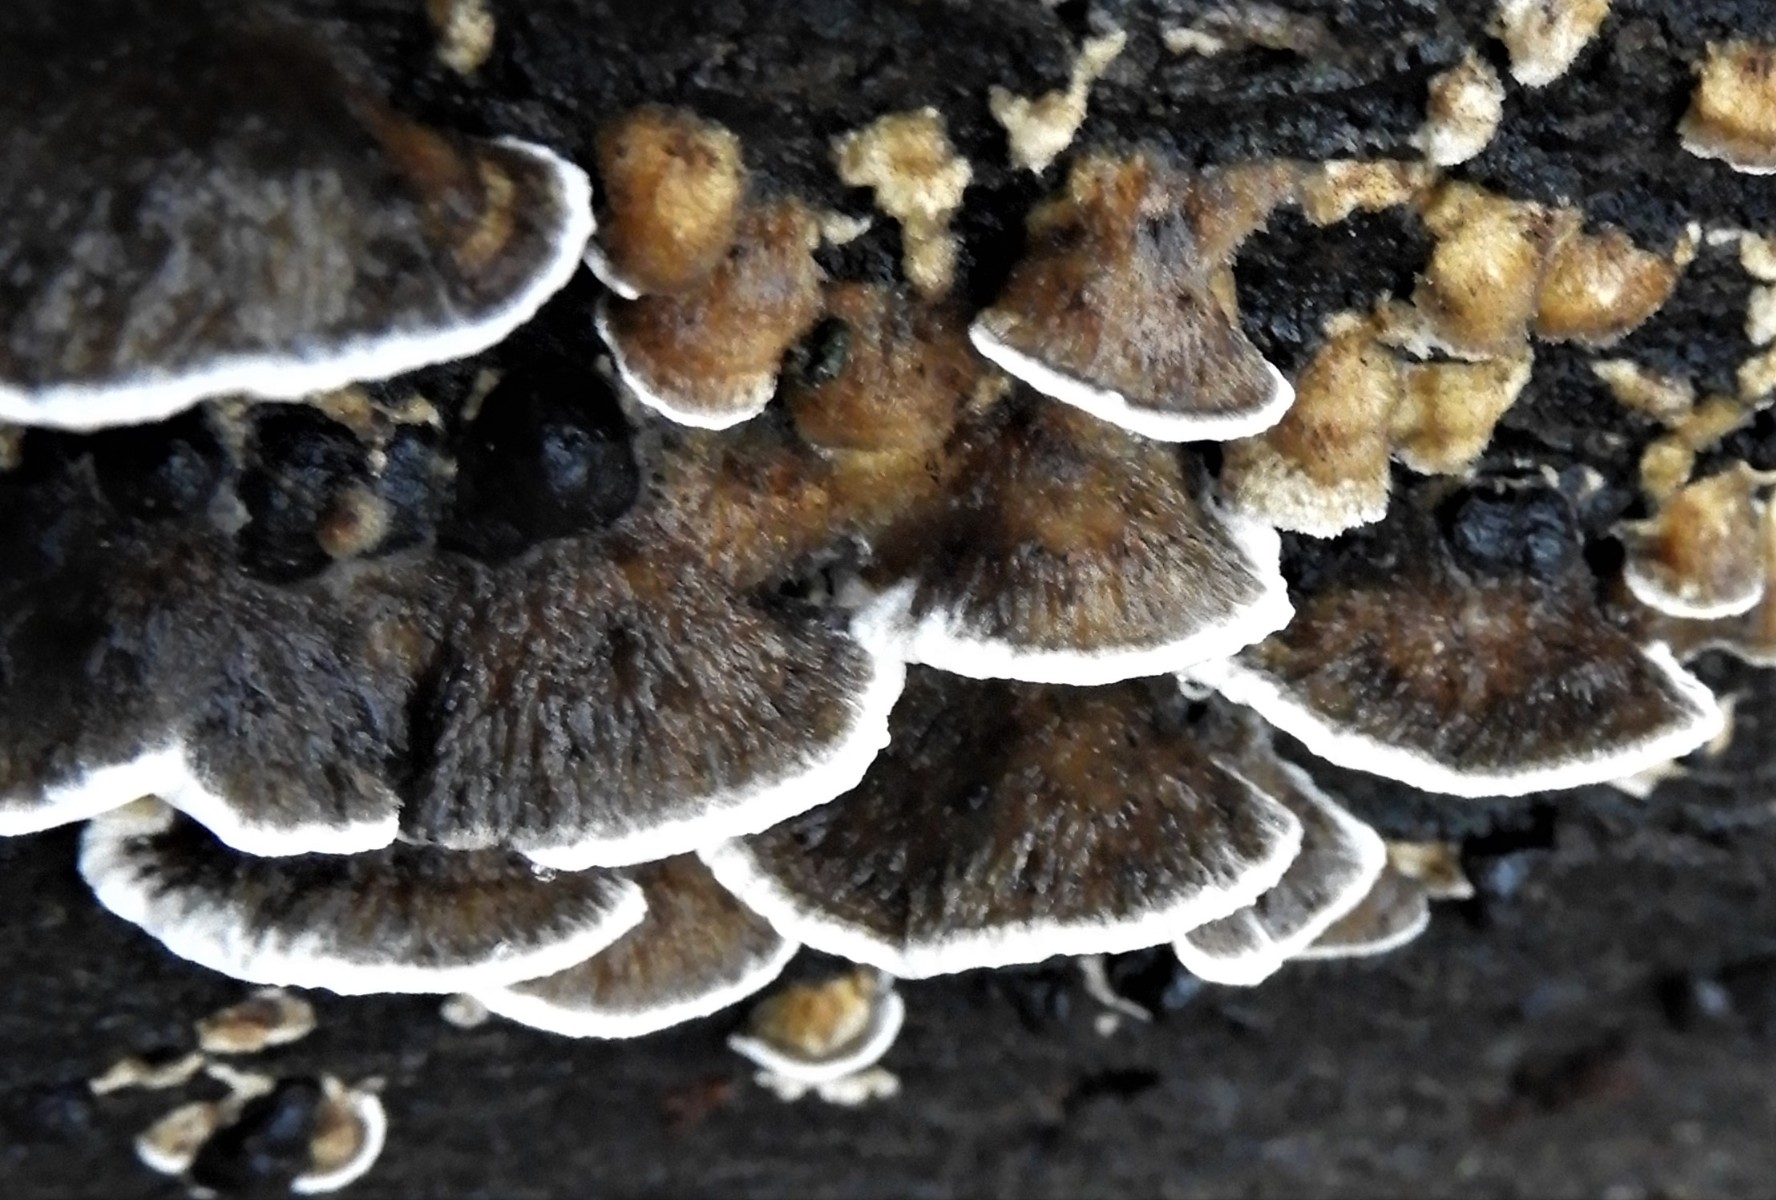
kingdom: Fungi
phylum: Basidiomycota
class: Agaricomycetes
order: Polyporales
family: Phanerochaetaceae
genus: Bjerkandera
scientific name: Bjerkandera adusta
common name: sveden sodporesvamp
